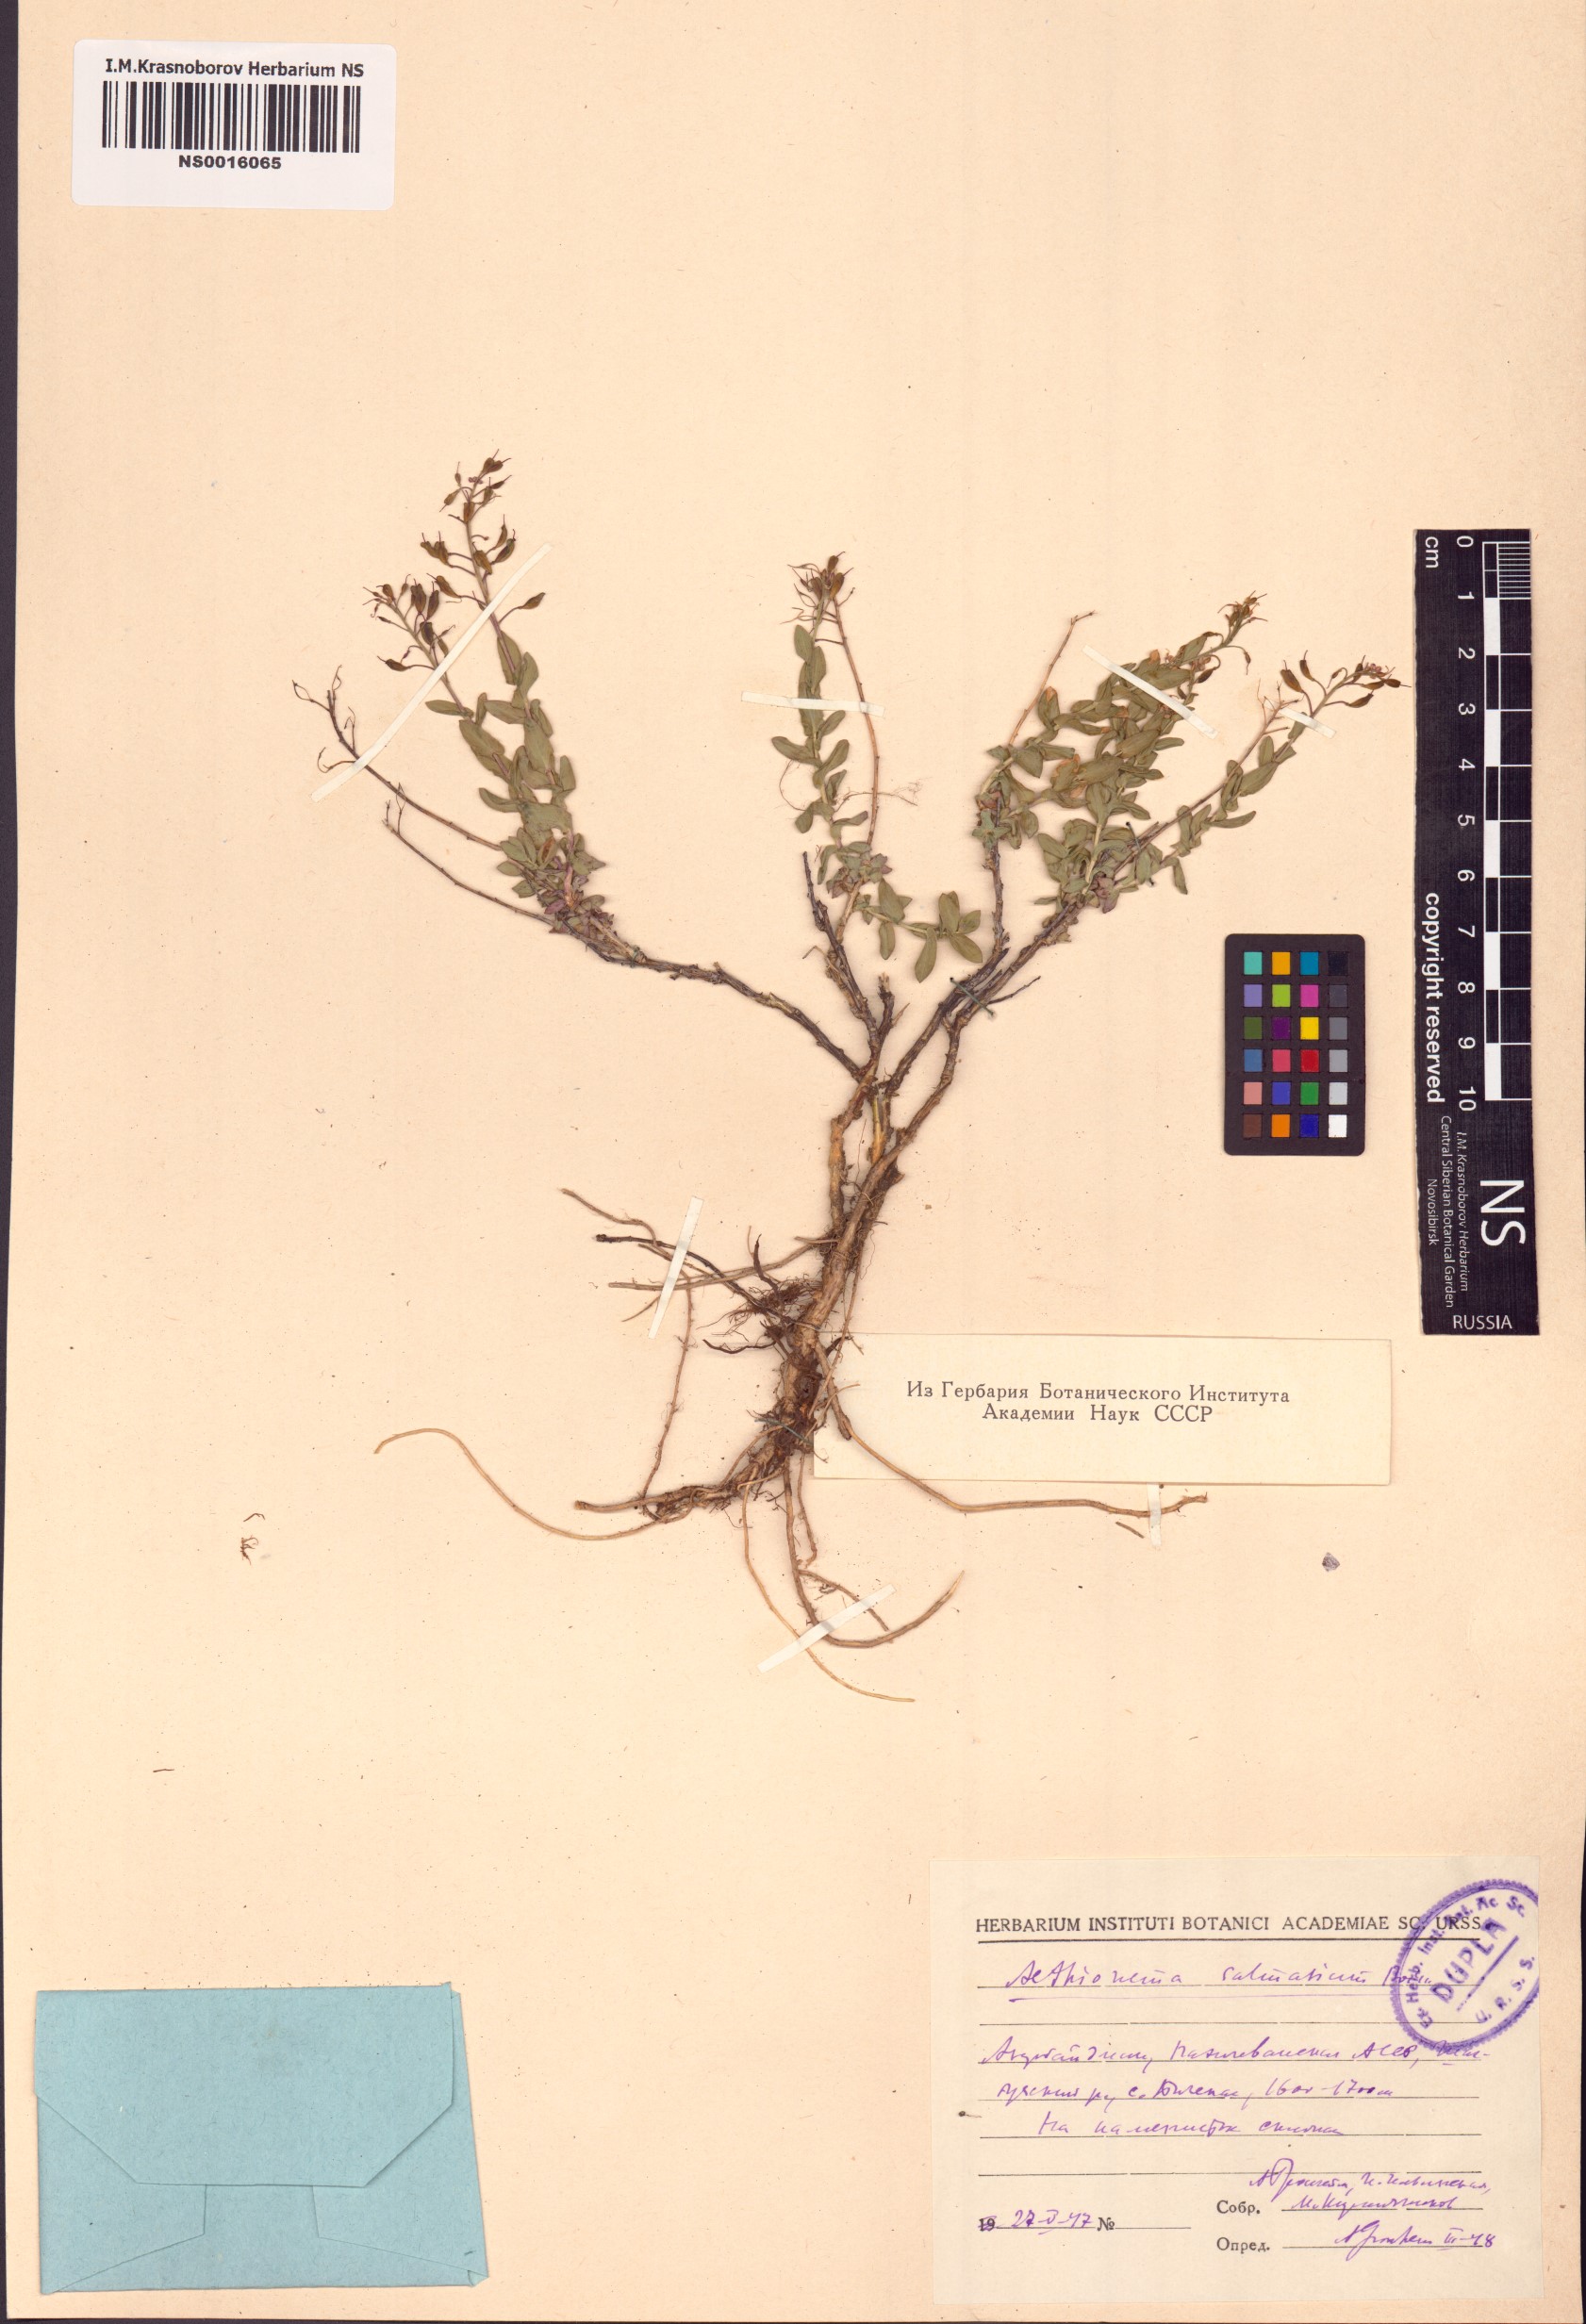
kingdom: Plantae
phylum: Tracheophyta
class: Magnoliopsida
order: Brassicales
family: Brassicaceae
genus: Noccaea
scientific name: Noccaea trinervia
